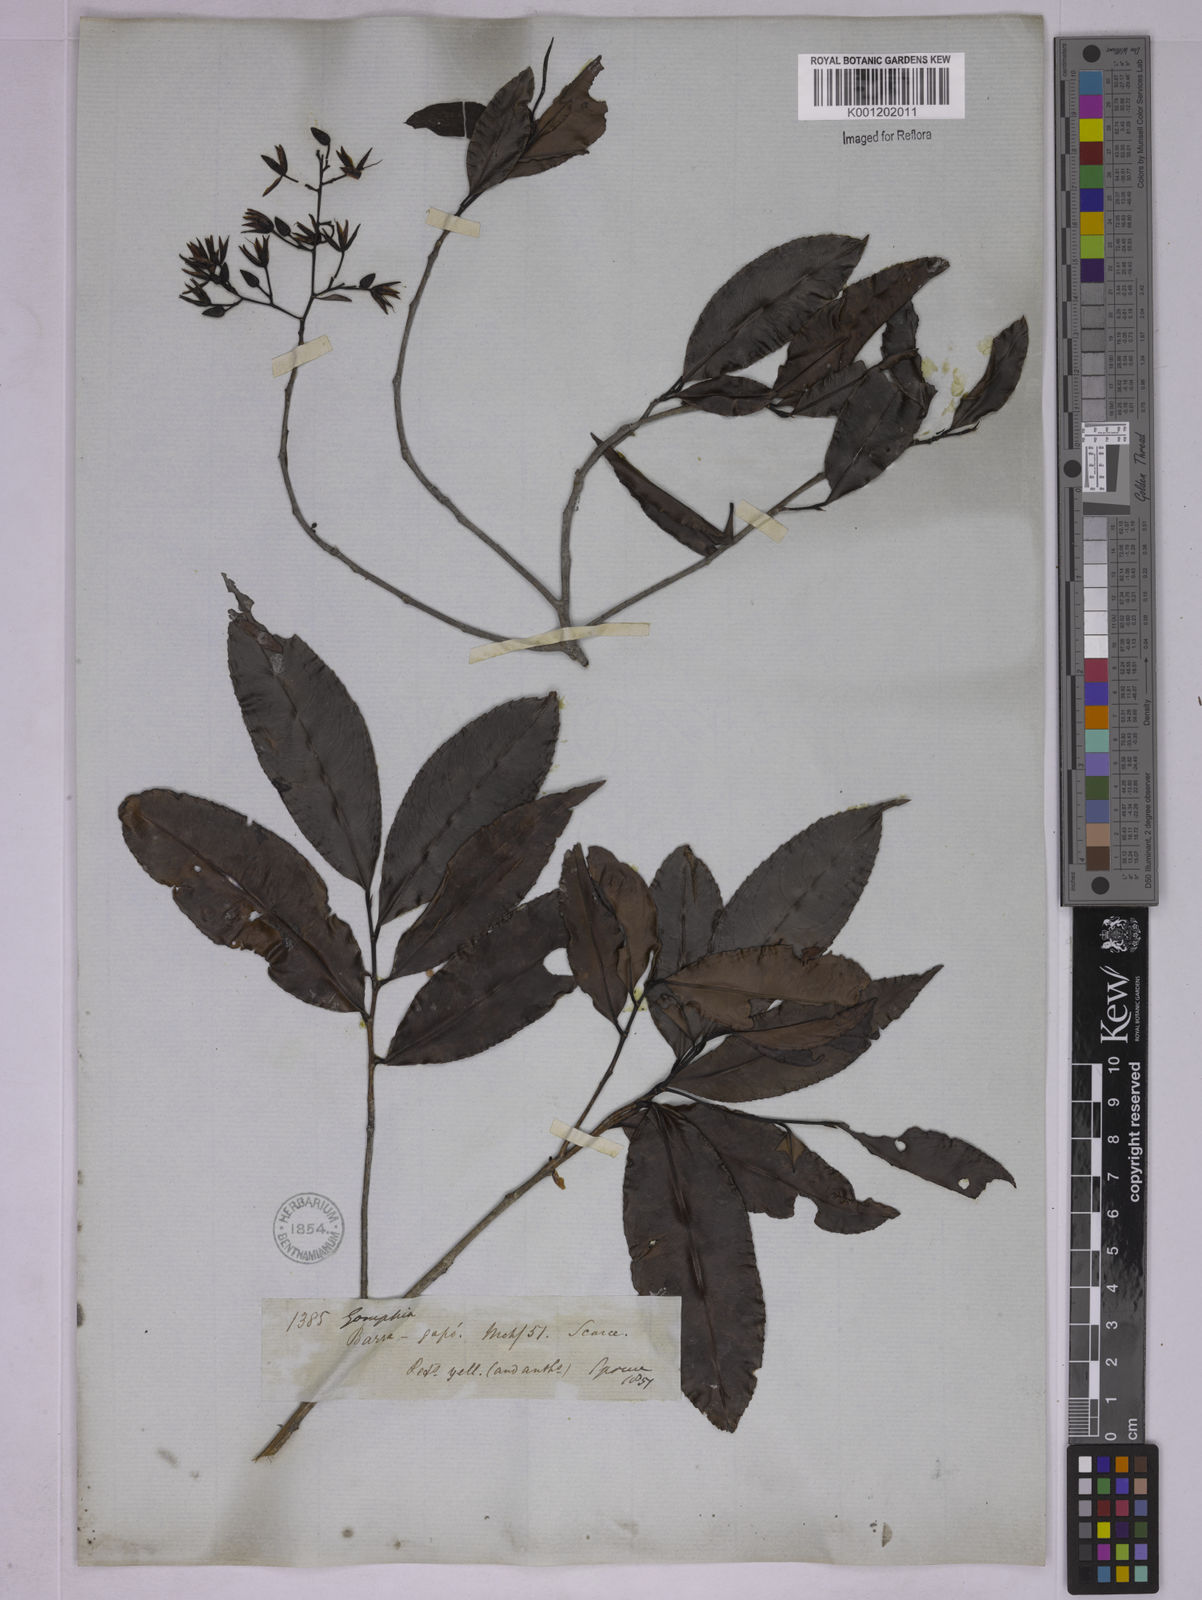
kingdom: Plantae
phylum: Tracheophyta
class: Magnoliopsida
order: Malpighiales
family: Ochnaceae
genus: Ouratea
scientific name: Ouratea pisiformis
